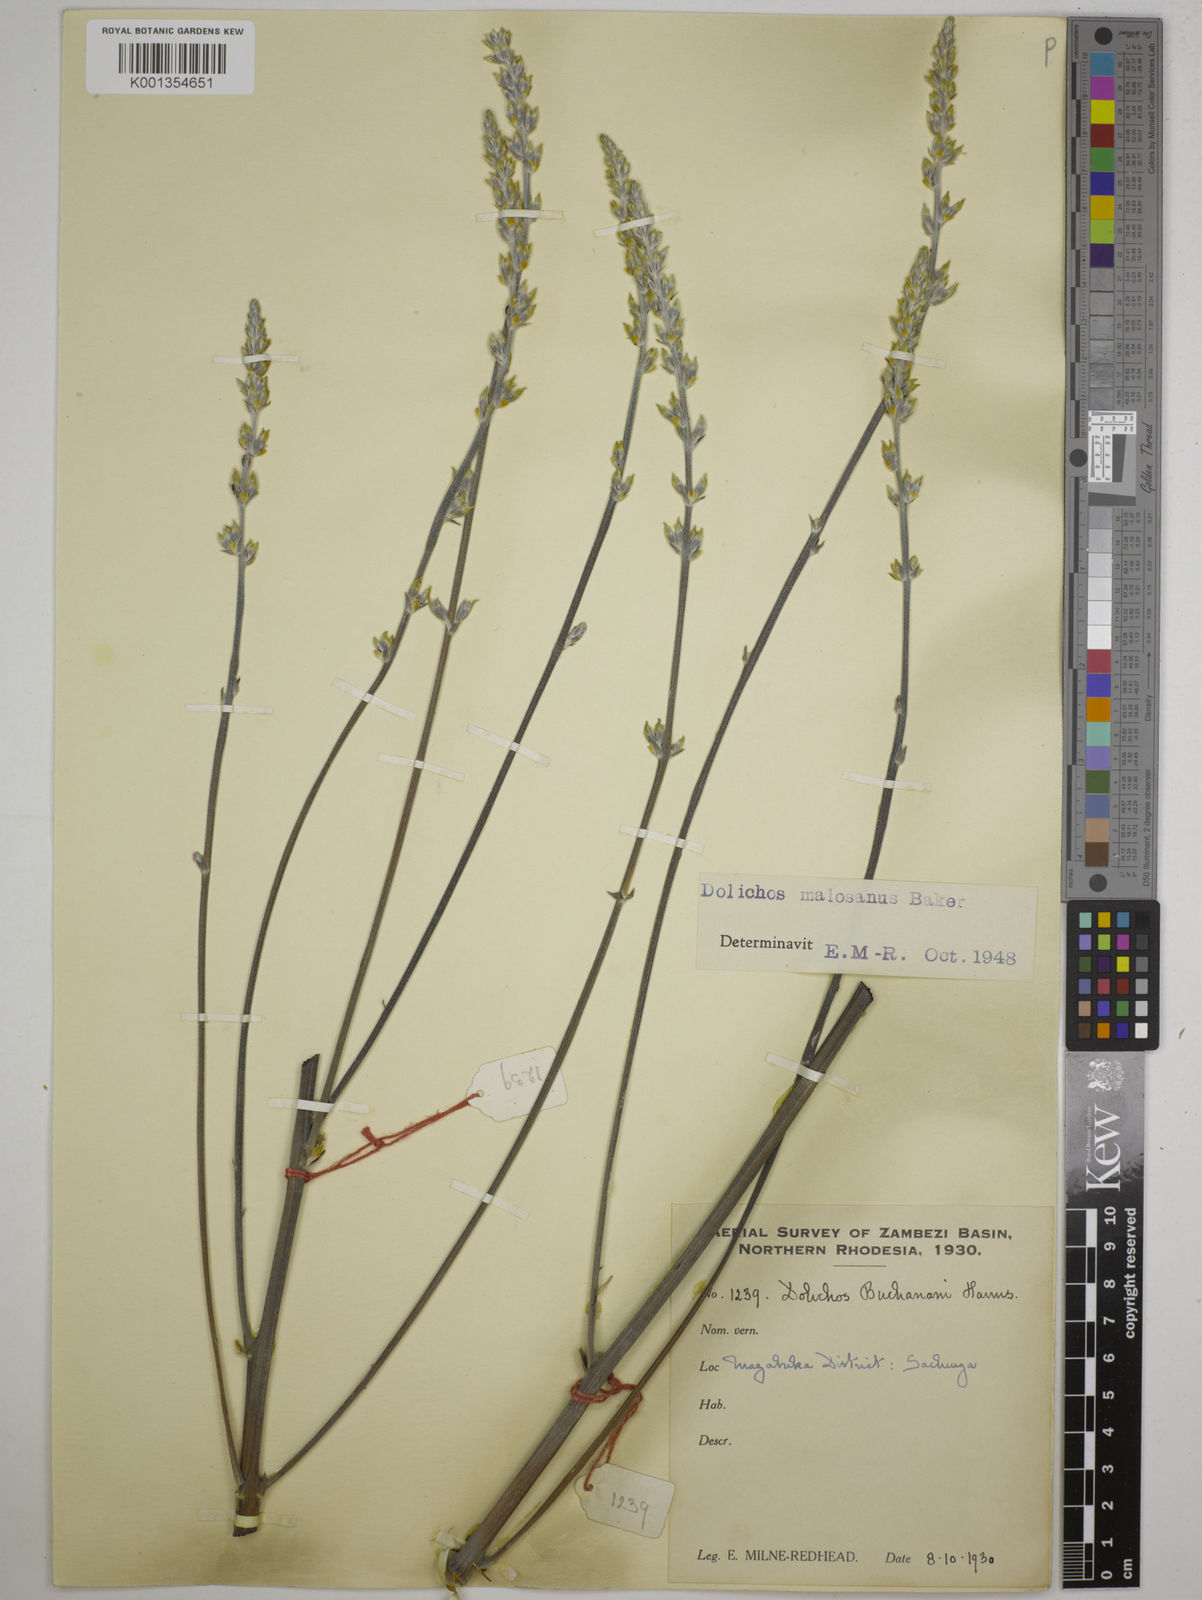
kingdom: Plantae
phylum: Tracheophyta
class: Magnoliopsida
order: Fabales
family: Fabaceae
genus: Dolichos
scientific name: Dolichos kilimandscharicus
